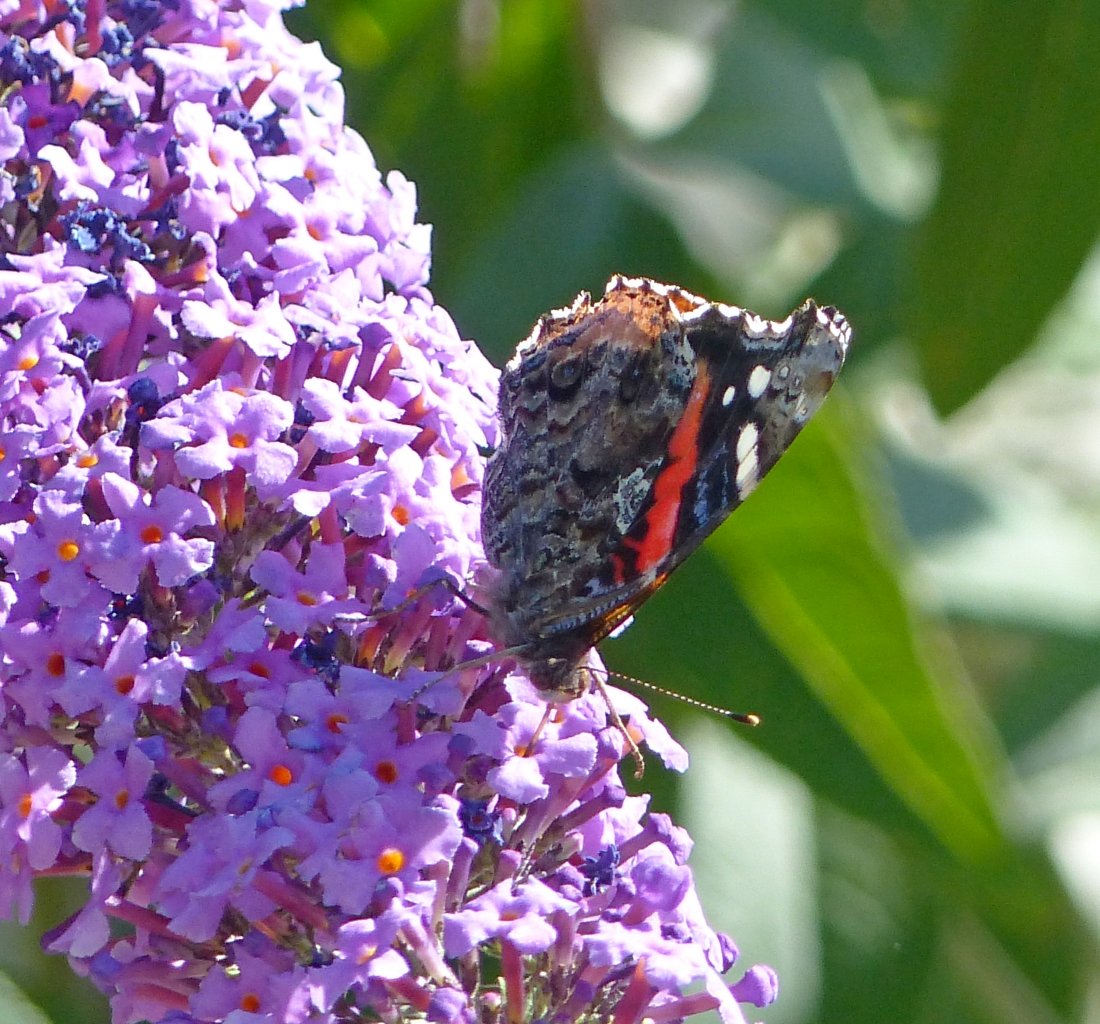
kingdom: Animalia
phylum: Arthropoda
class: Insecta
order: Lepidoptera
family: Nymphalidae
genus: Vanessa
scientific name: Vanessa atalanta
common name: Red Admiral
